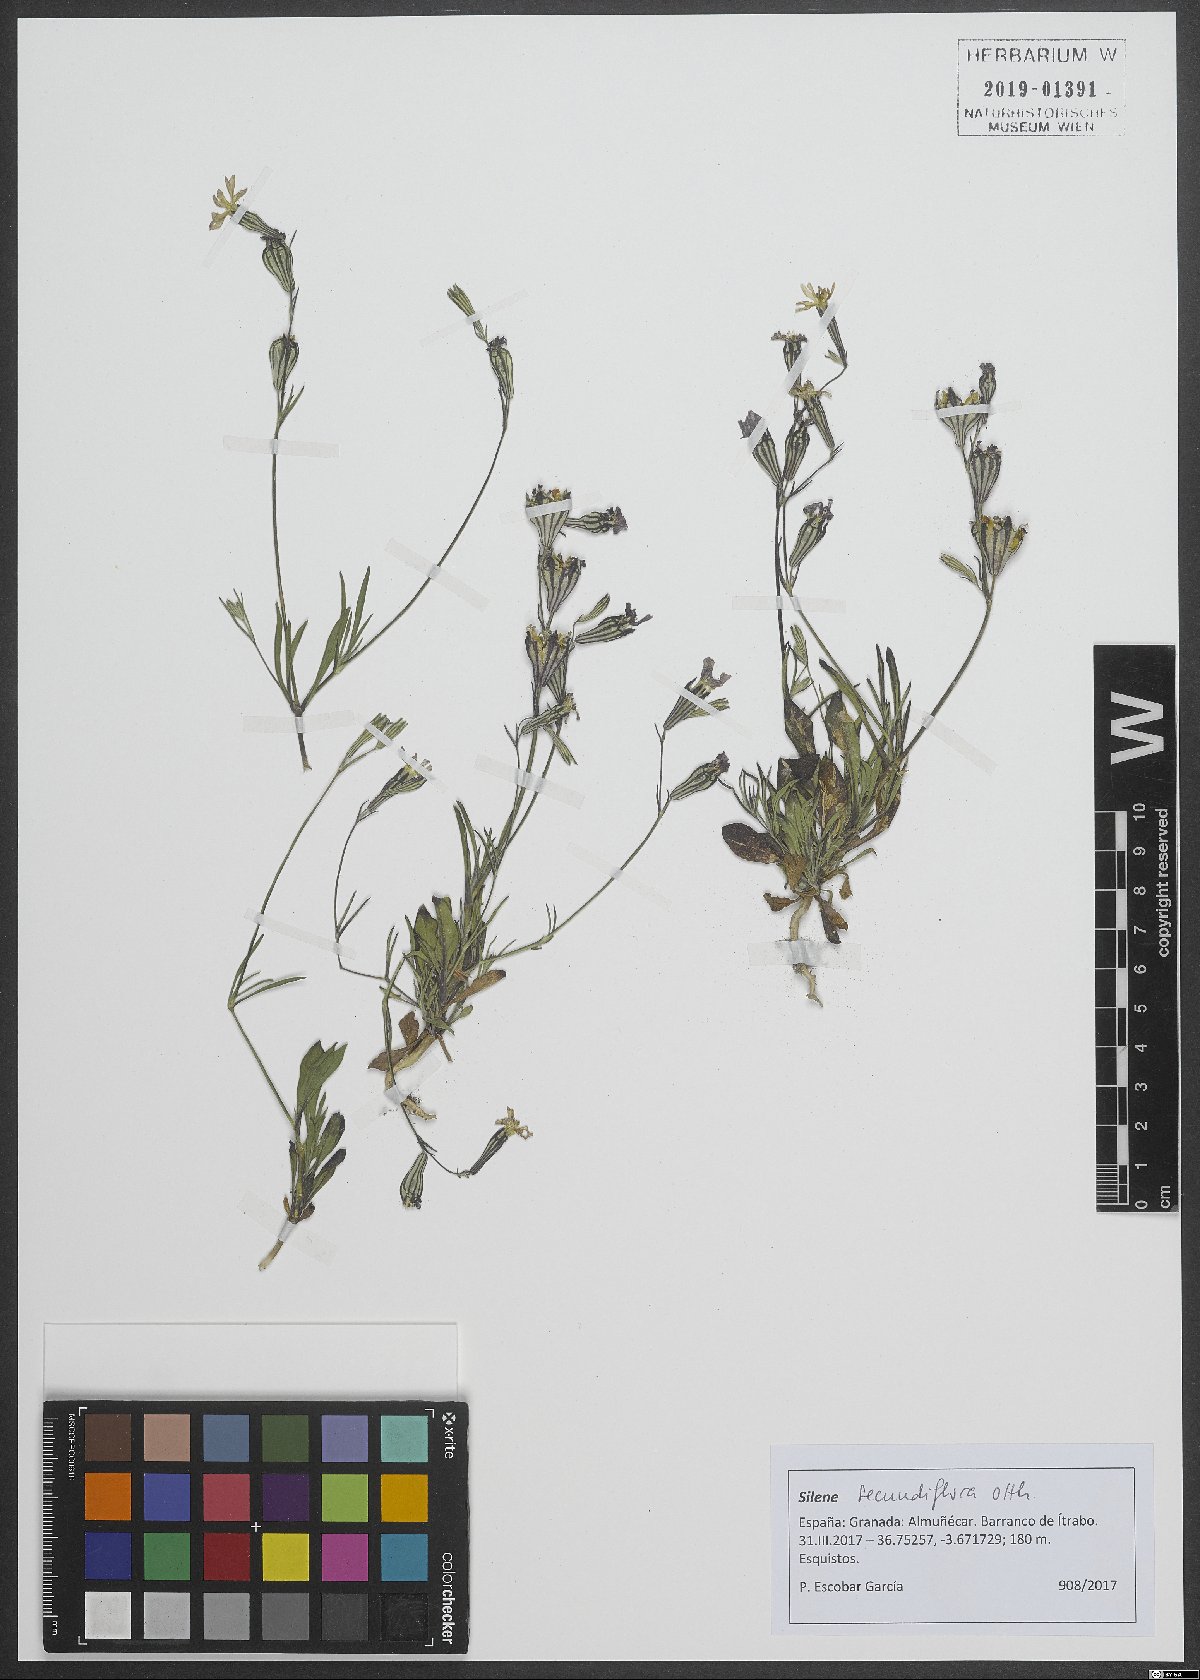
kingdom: Plantae
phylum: Tracheophyta
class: Magnoliopsida
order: Caryophyllales
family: Caryophyllaceae
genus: Silene
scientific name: Silene secundiflora
